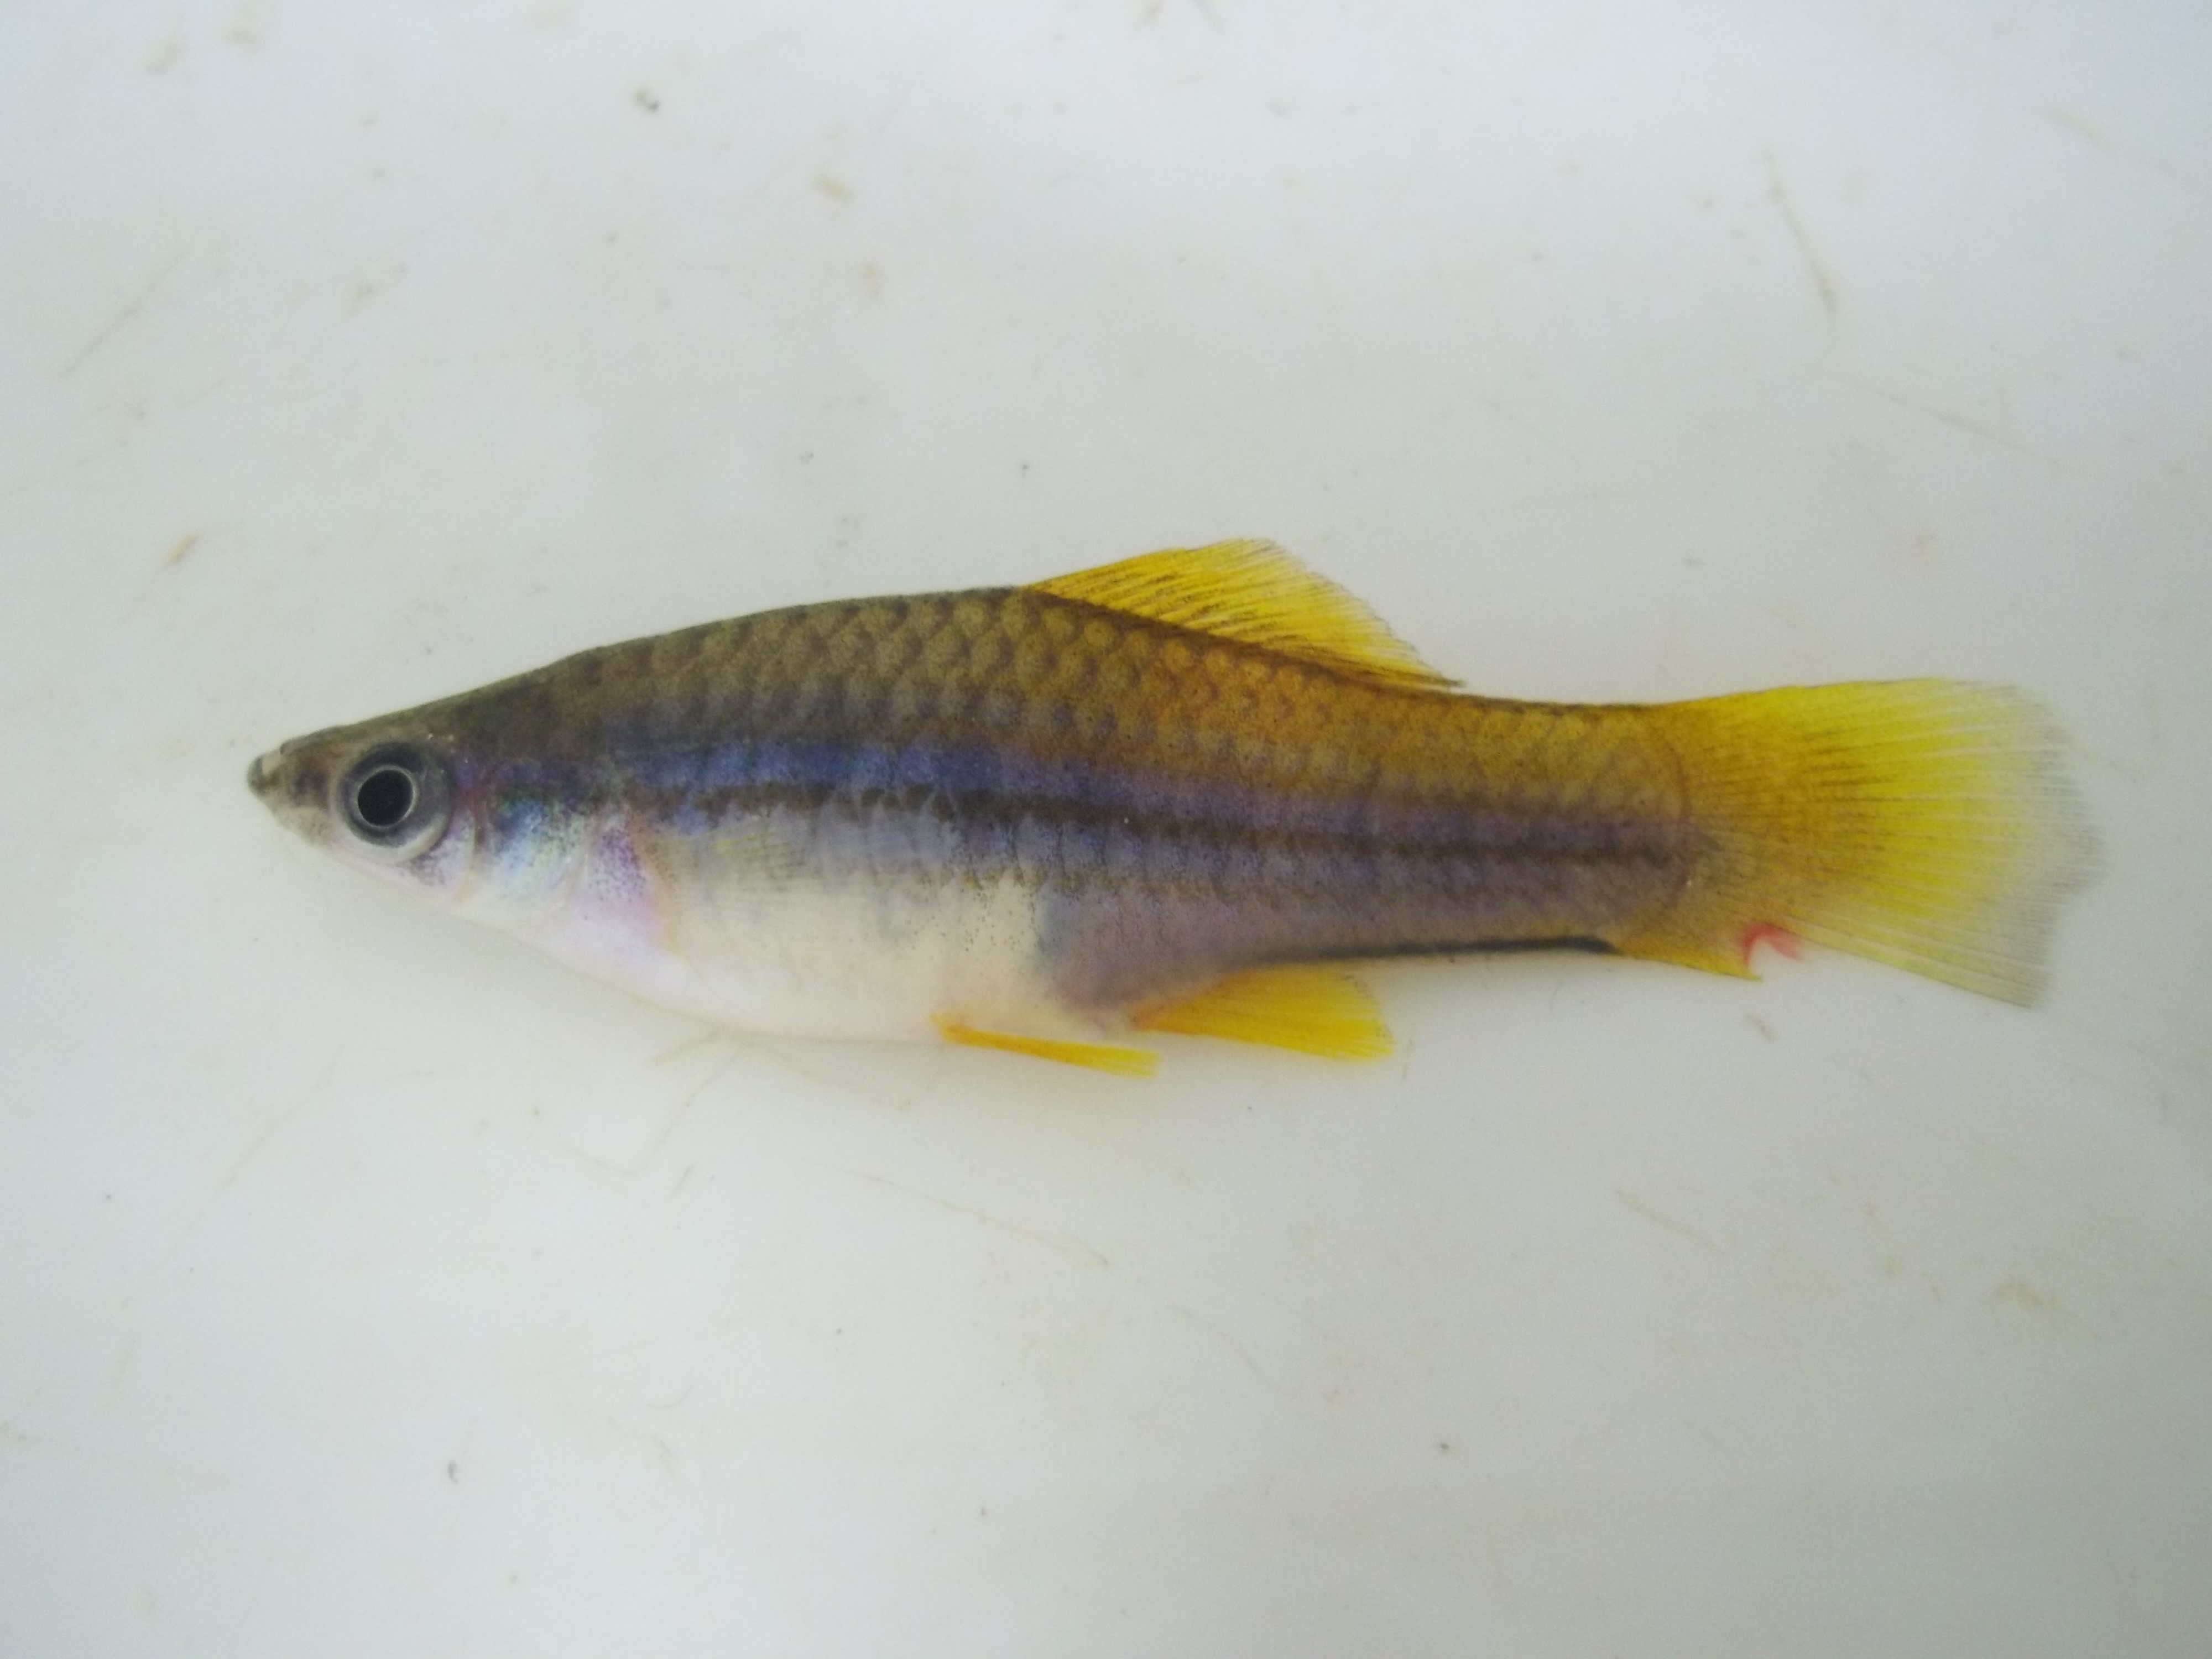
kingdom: Animalia
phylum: Chordata
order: Cyprinodontiformes
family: Poeciliidae
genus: Xiphophorus
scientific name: Xiphophorus hellerii
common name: Green swordtail
